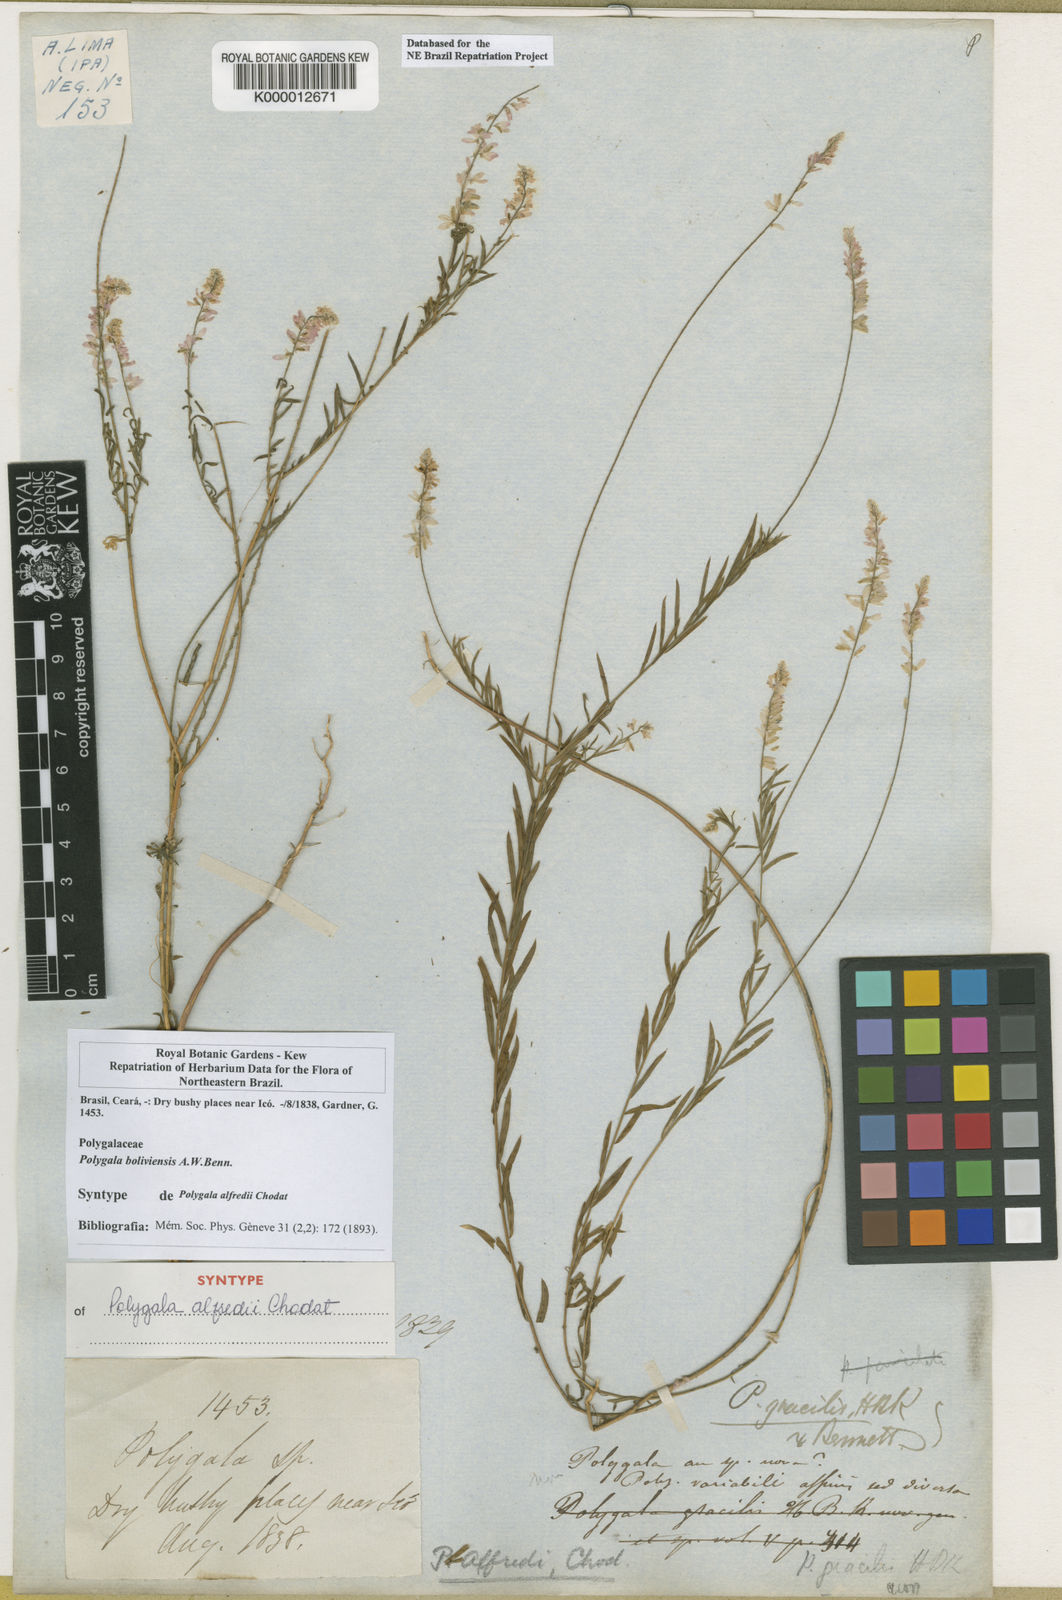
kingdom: Plantae
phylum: Tracheophyta
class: Magnoliopsida
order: Fabales
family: Polygalaceae
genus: Polygala
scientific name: Polygala
